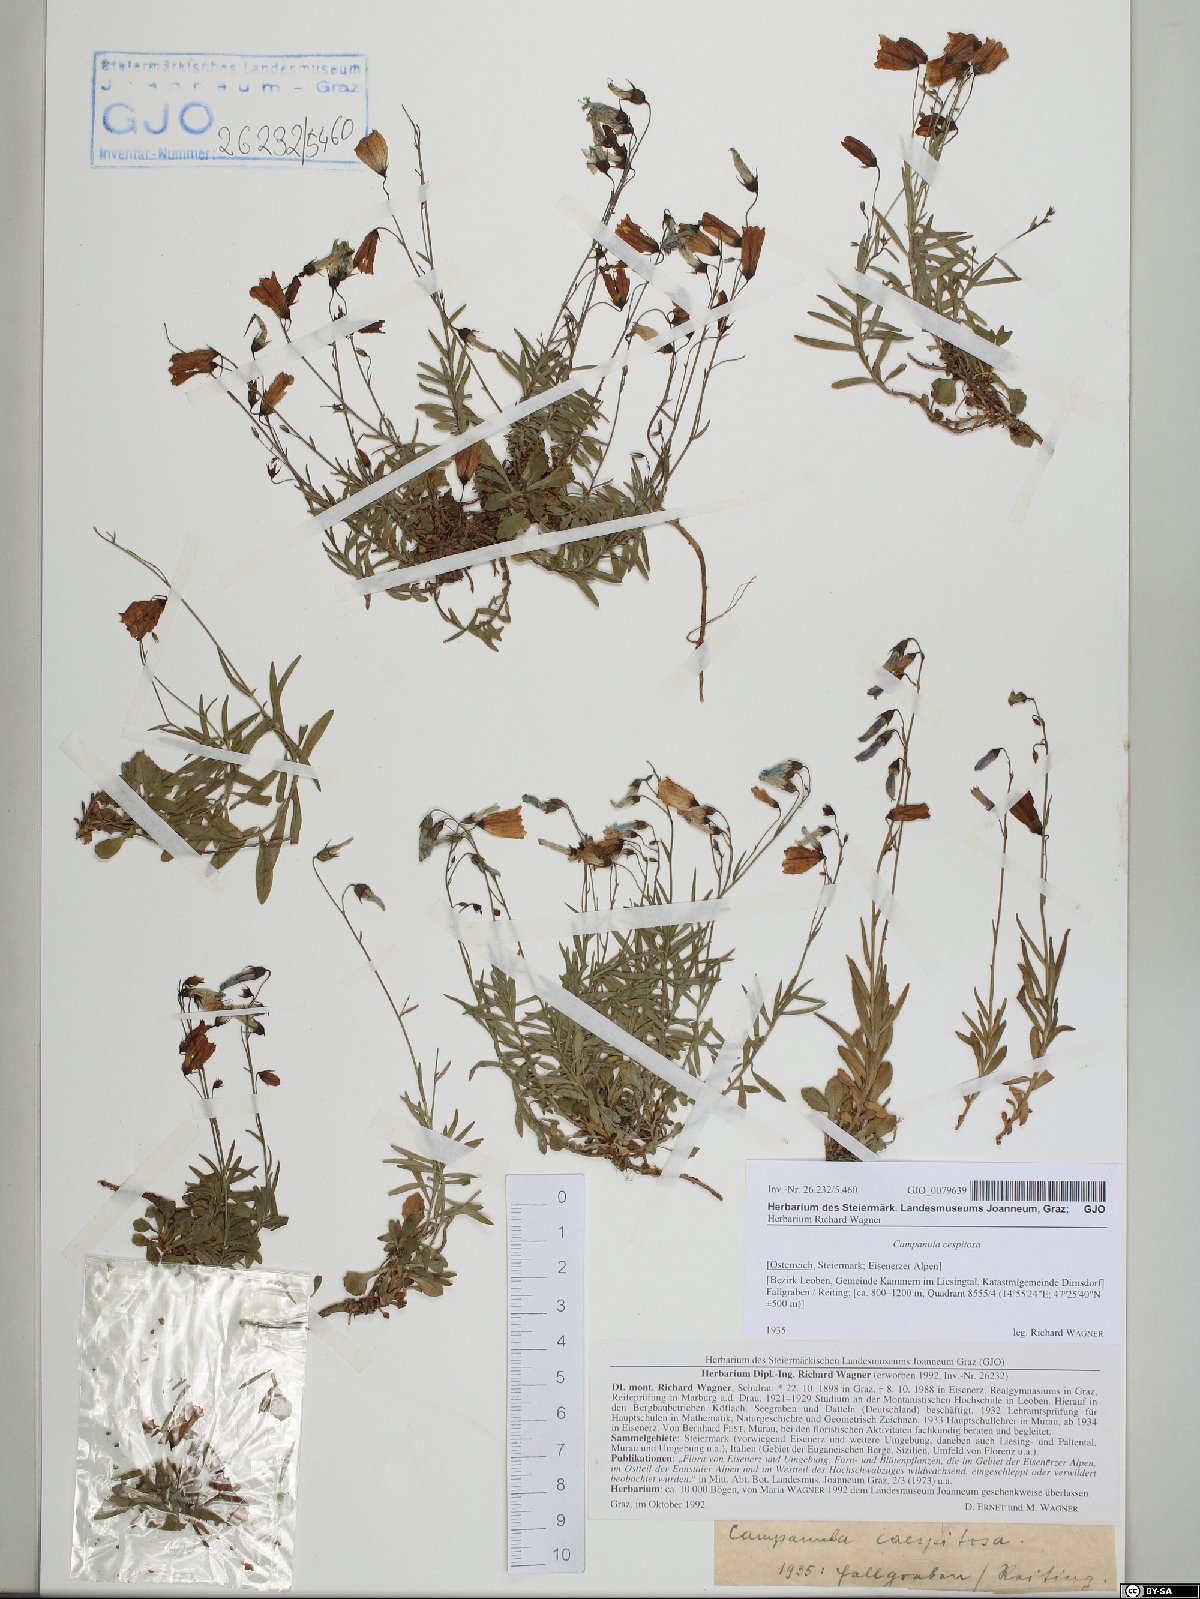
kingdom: Plantae
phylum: Tracheophyta
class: Magnoliopsida
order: Asterales
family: Campanulaceae
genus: Campanula
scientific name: Campanula cespitosa
